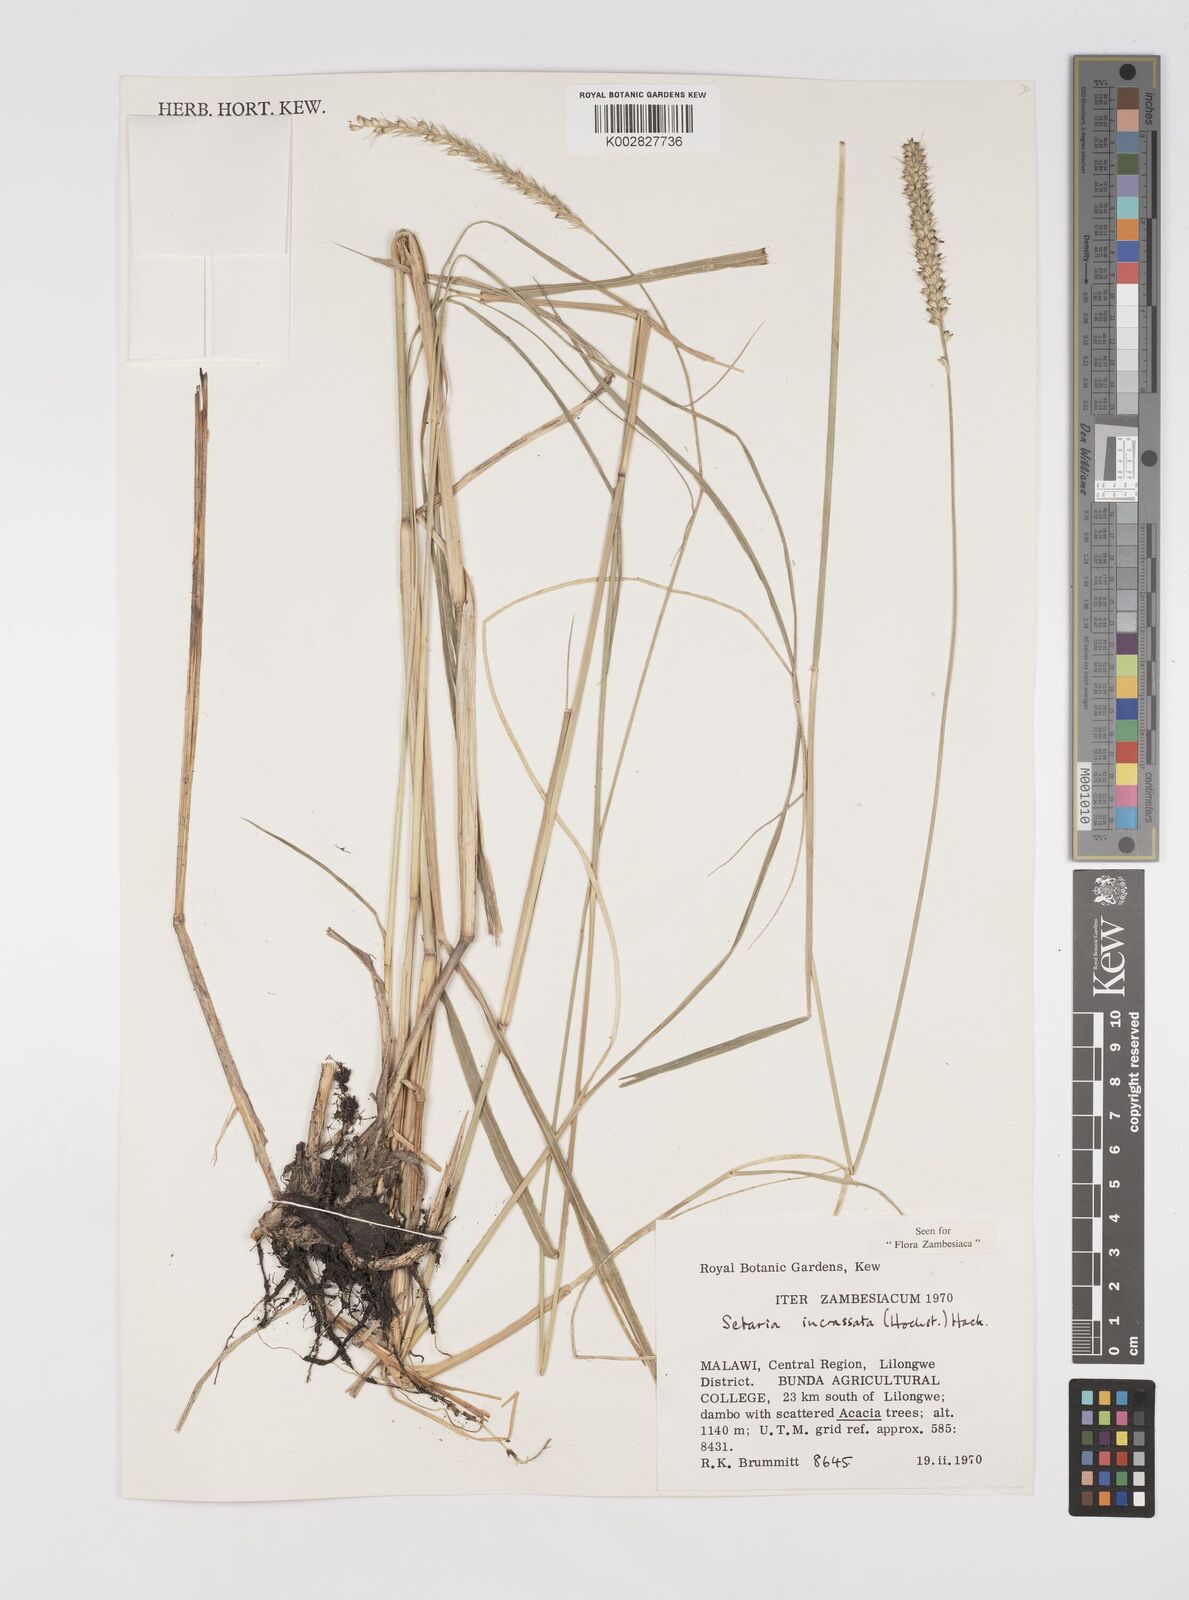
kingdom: Plantae
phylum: Tracheophyta
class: Liliopsida
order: Poales
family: Poaceae
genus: Setaria
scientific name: Setaria incrassata
